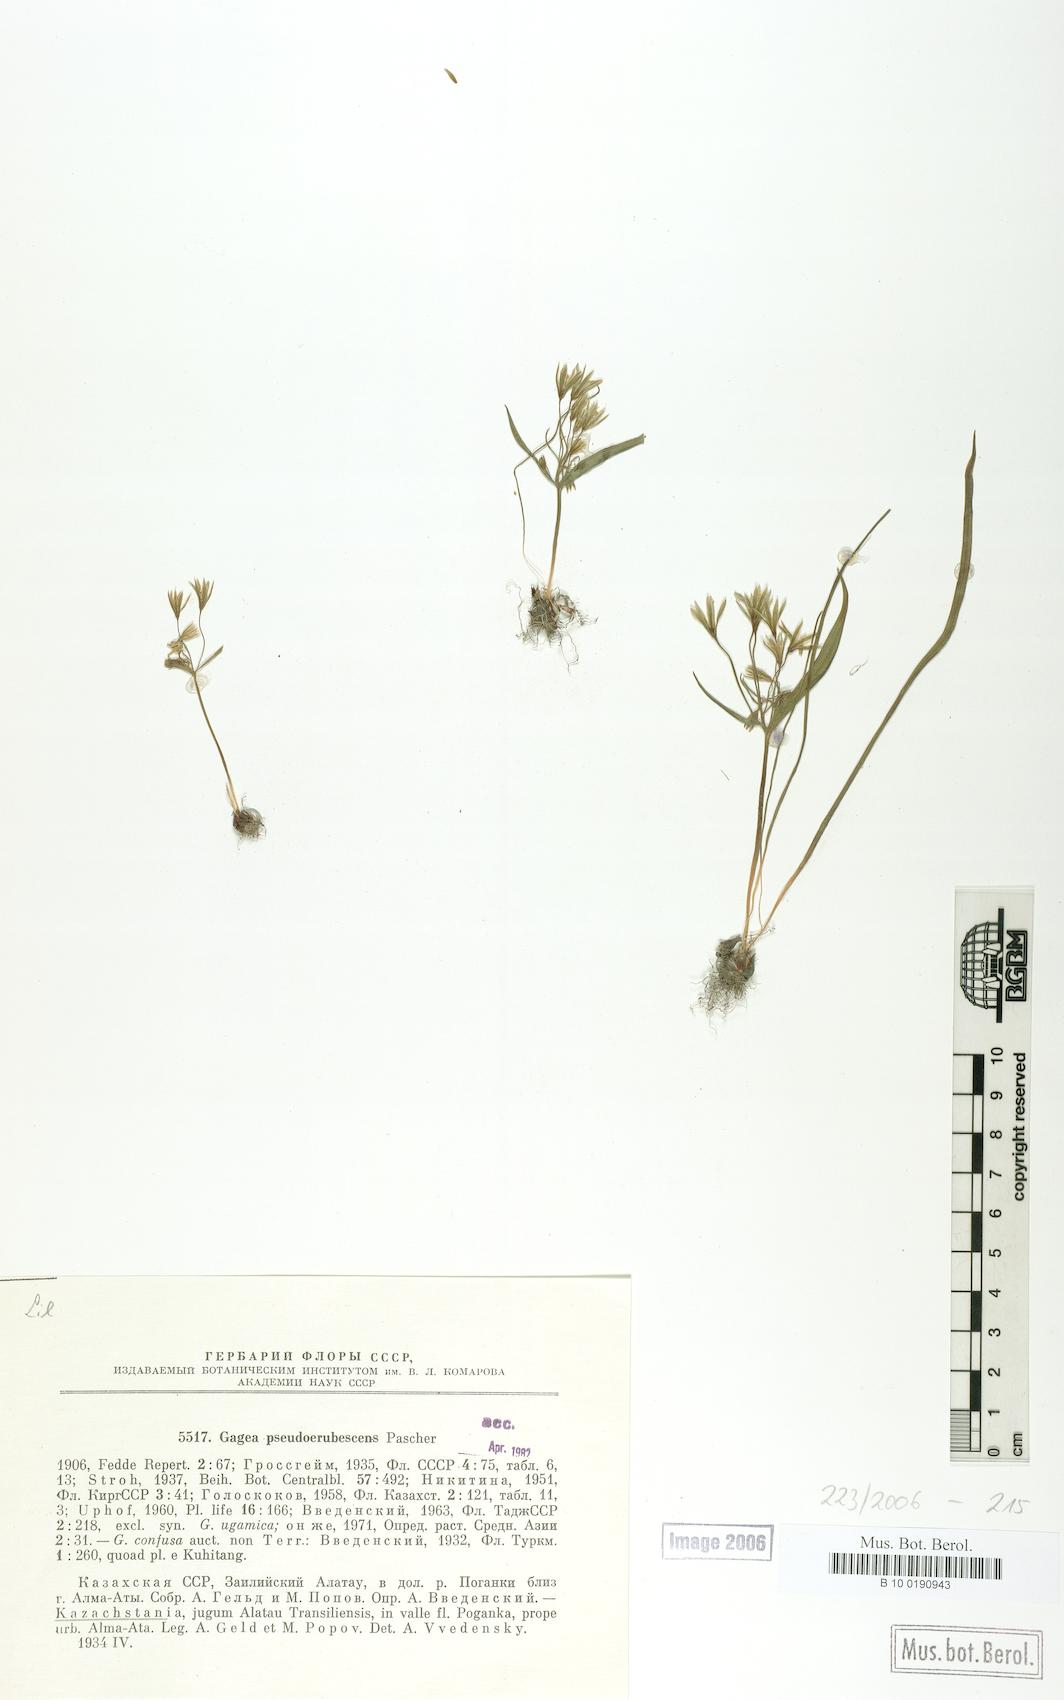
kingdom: Plantae
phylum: Tracheophyta
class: Liliopsida
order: Liliales
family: Liliaceae
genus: Gagea
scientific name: Gagea filiformis
